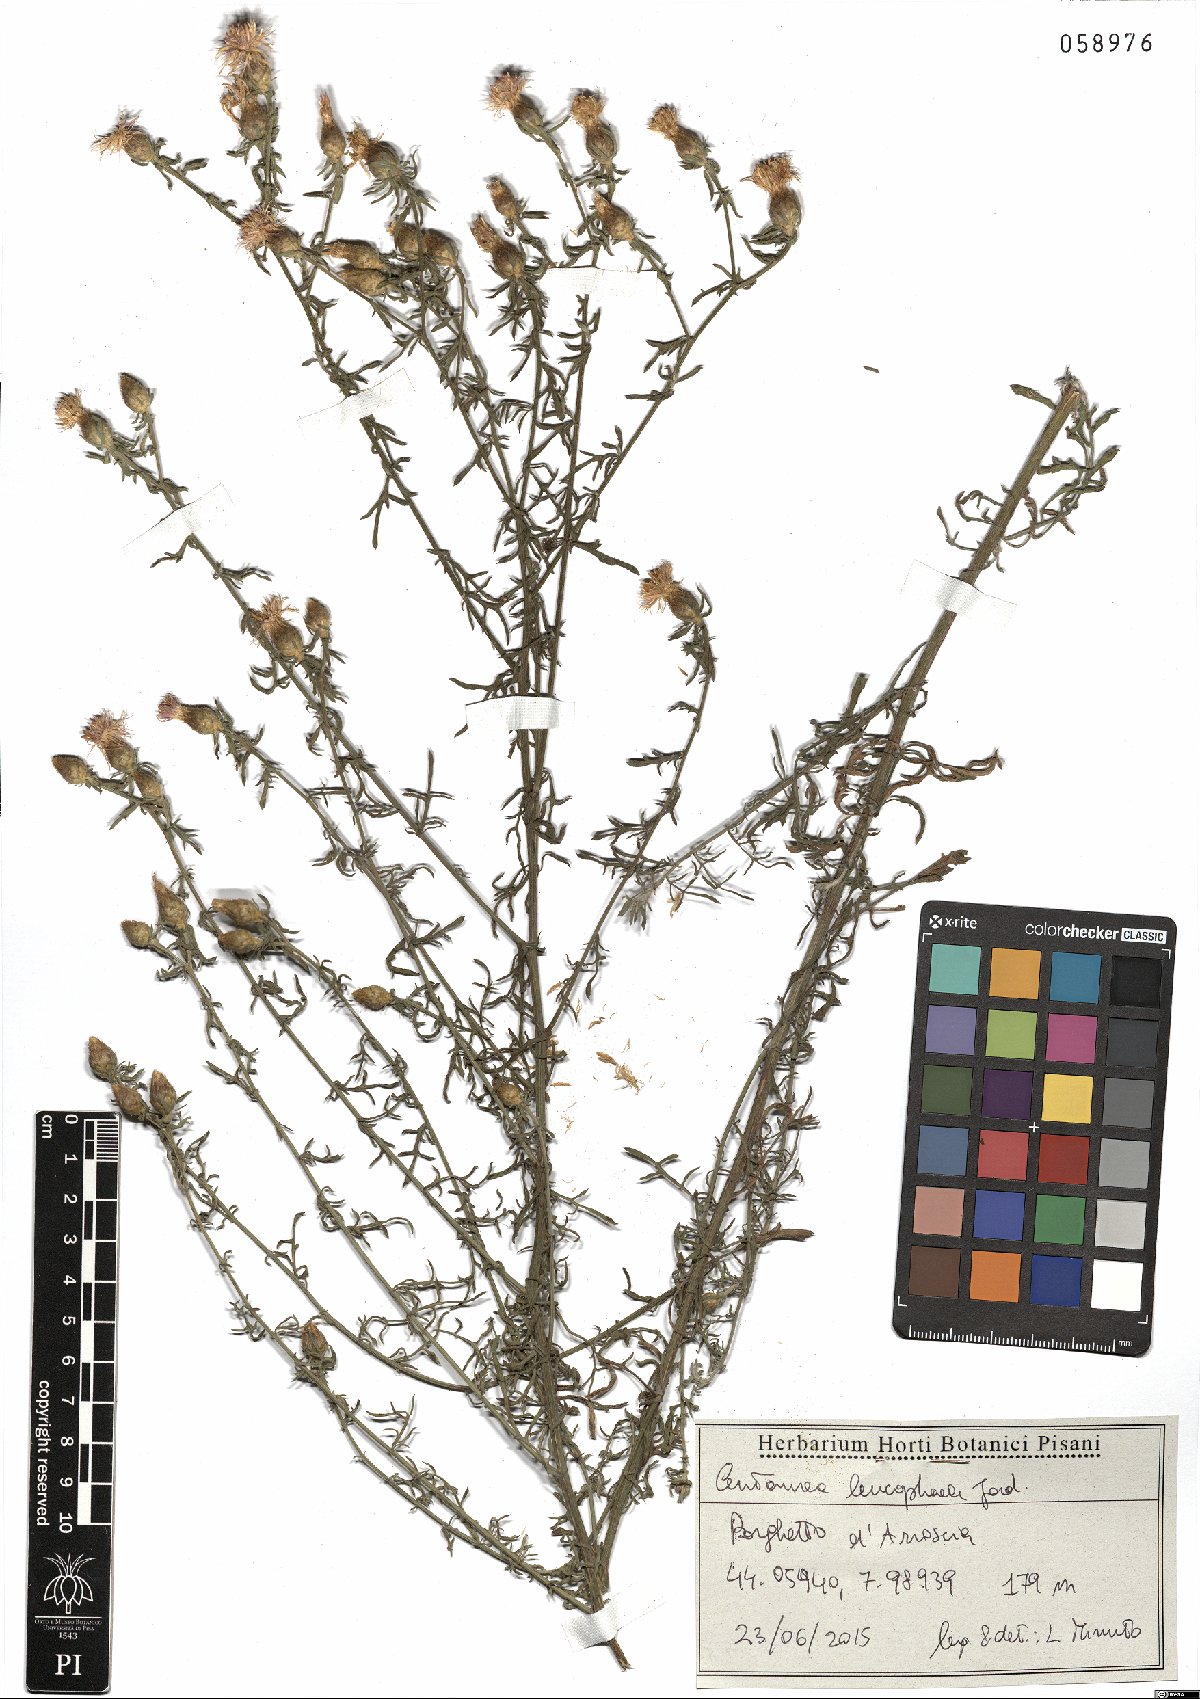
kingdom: Plantae
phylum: Tracheophyta
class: Magnoliopsida
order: Asterales
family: Asteraceae
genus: Centaurea
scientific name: Centaurea leucophaea
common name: Whitish-leaved knapweed
